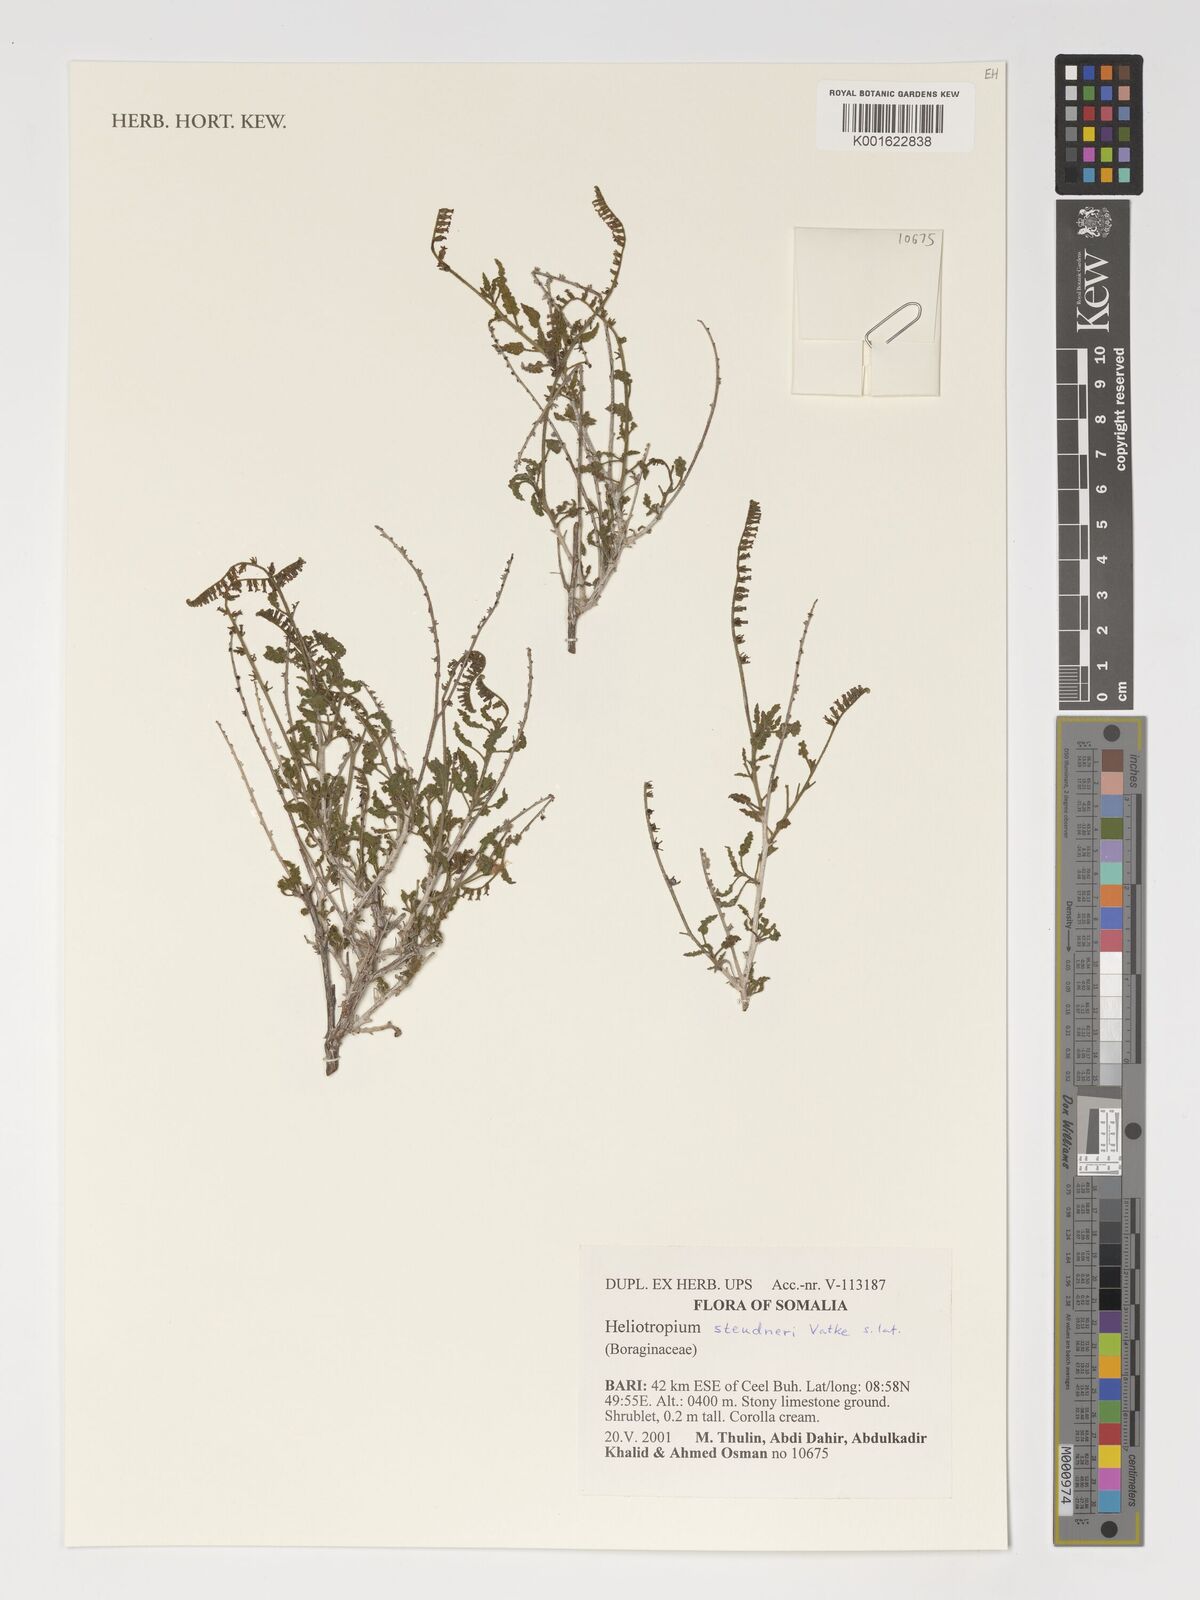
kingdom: Plantae
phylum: Tracheophyta
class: Magnoliopsida
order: Boraginales
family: Heliotropiaceae
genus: Heliotropium
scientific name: Heliotropium steudneri
